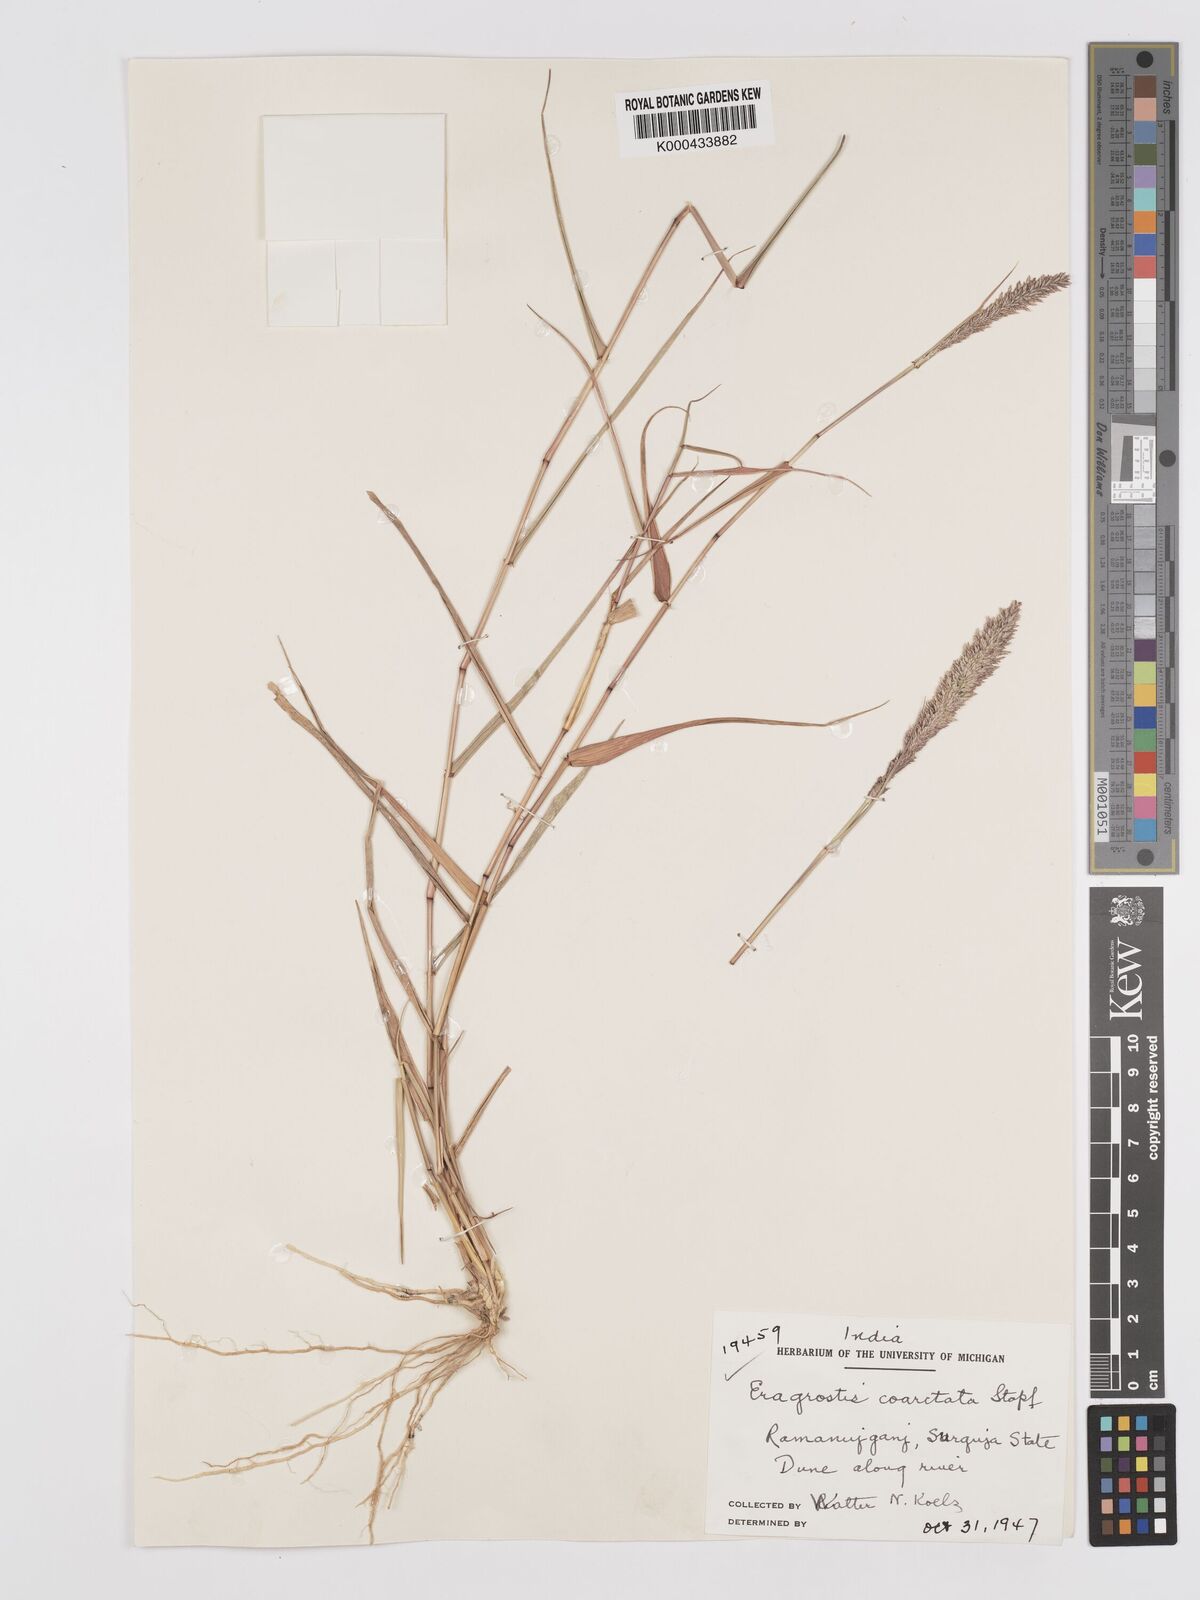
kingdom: Plantae
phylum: Tracheophyta
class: Liliopsida
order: Poales
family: Poaceae
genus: Eragrostis
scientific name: Eragrostis coarctata
